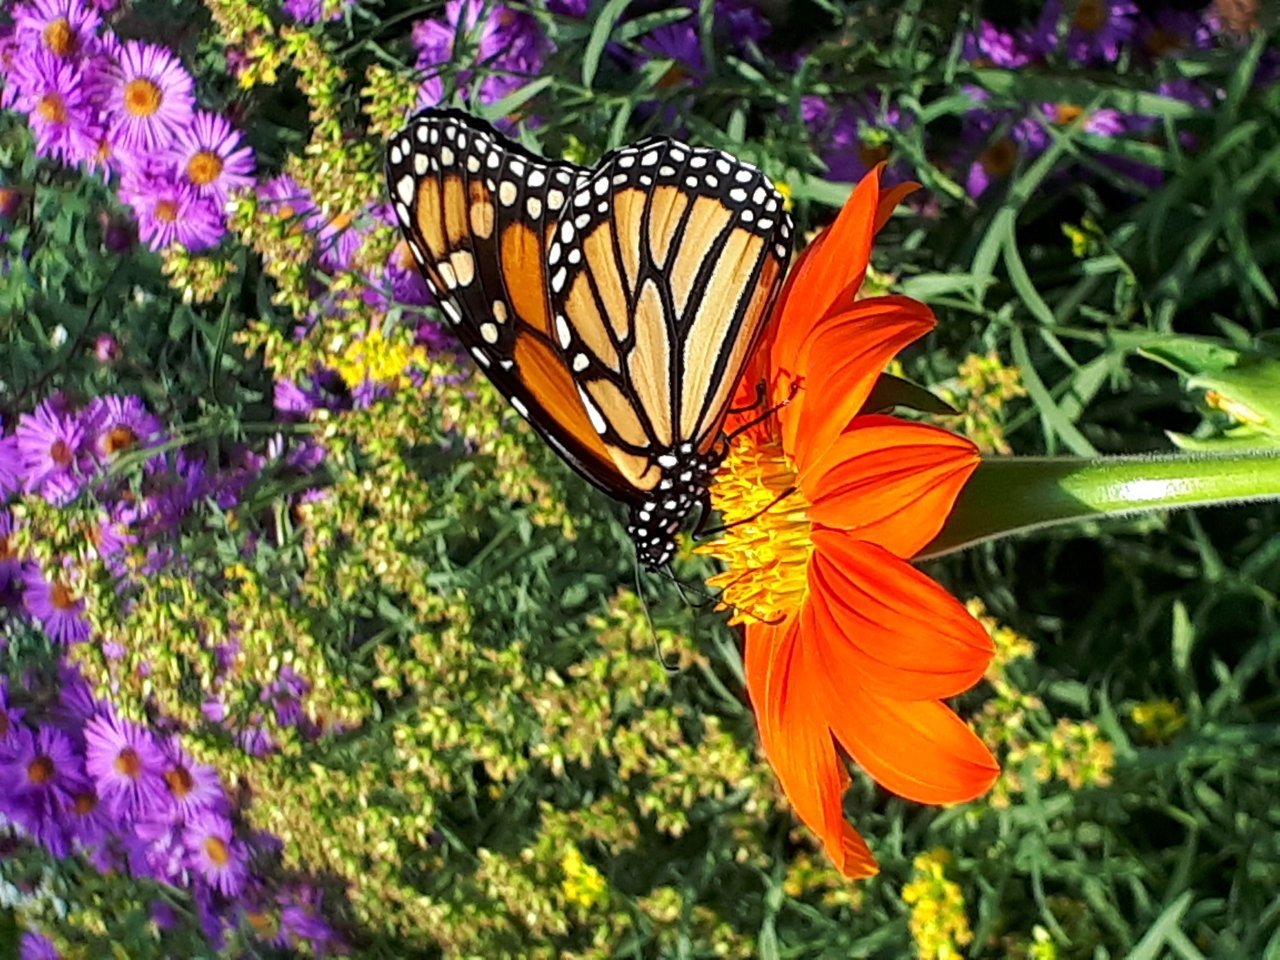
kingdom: Animalia
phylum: Arthropoda
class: Insecta
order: Lepidoptera
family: Nymphalidae
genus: Danaus
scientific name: Danaus plexippus
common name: Monarch
